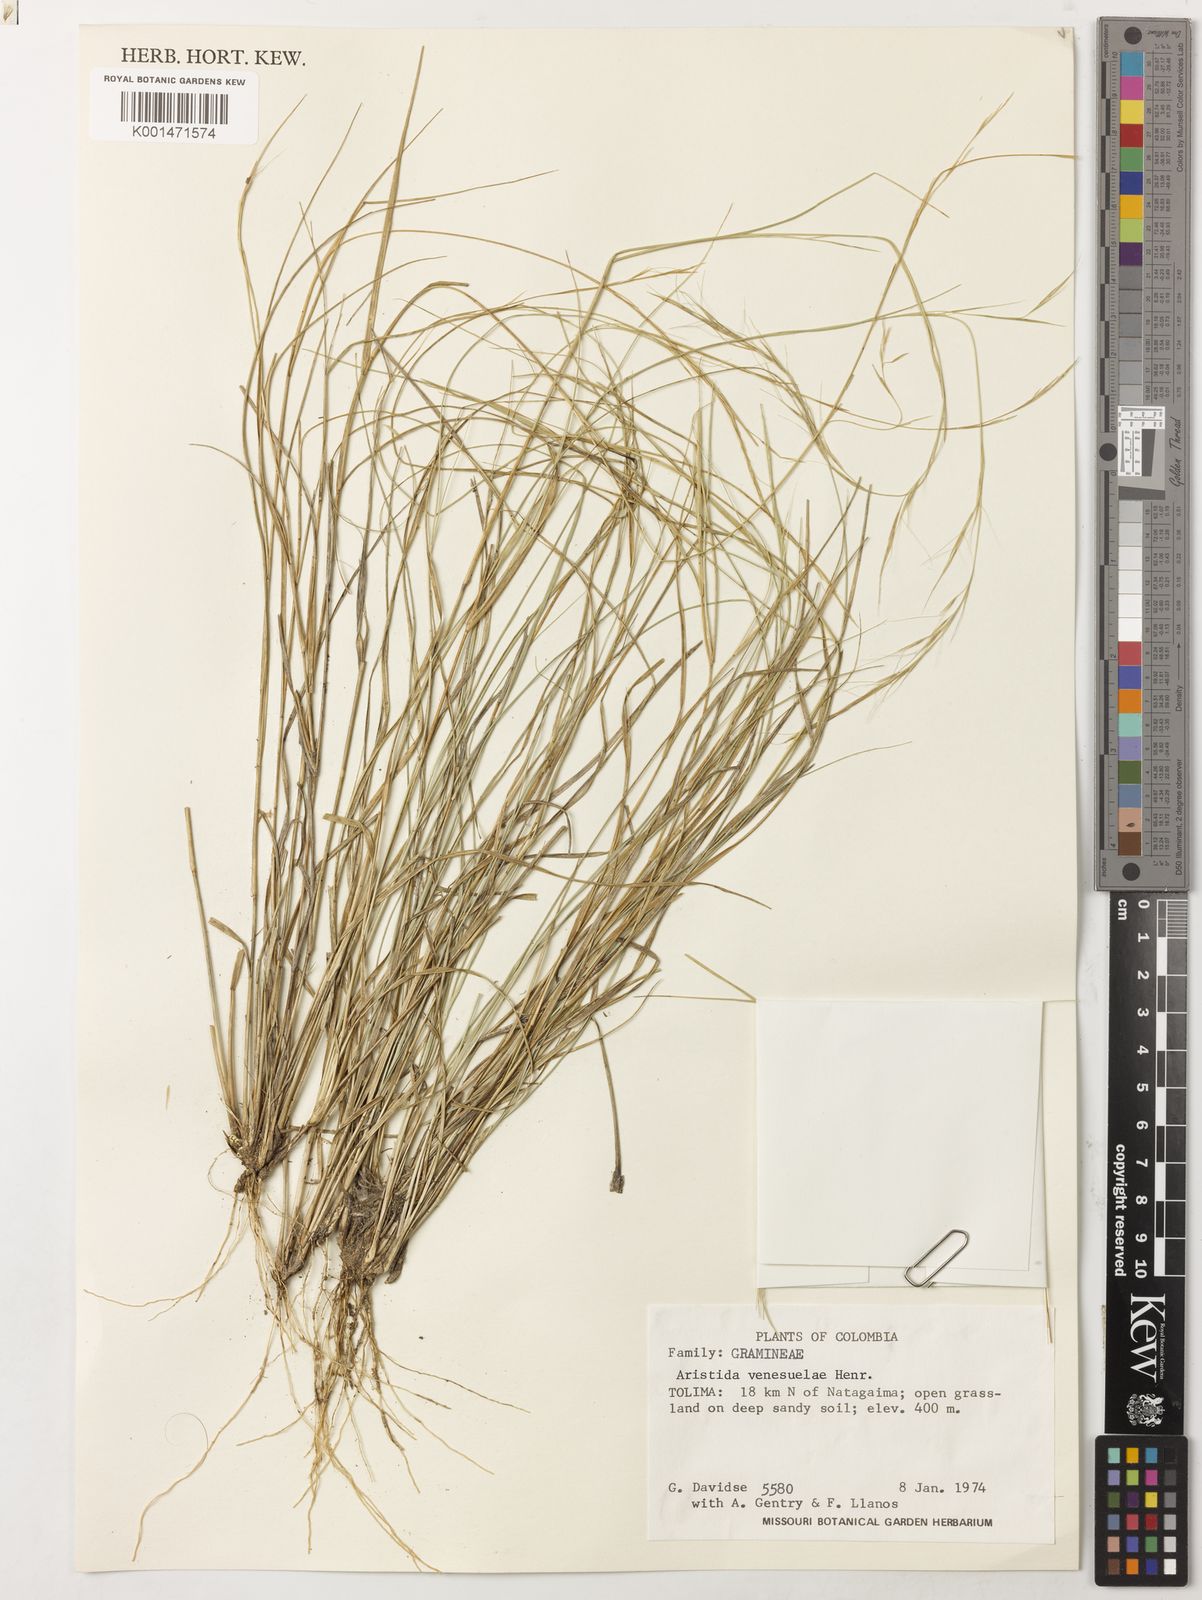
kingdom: Plantae
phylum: Tracheophyta
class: Liliopsida
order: Poales
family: Poaceae
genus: Aristida
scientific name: Aristida venesuelae
